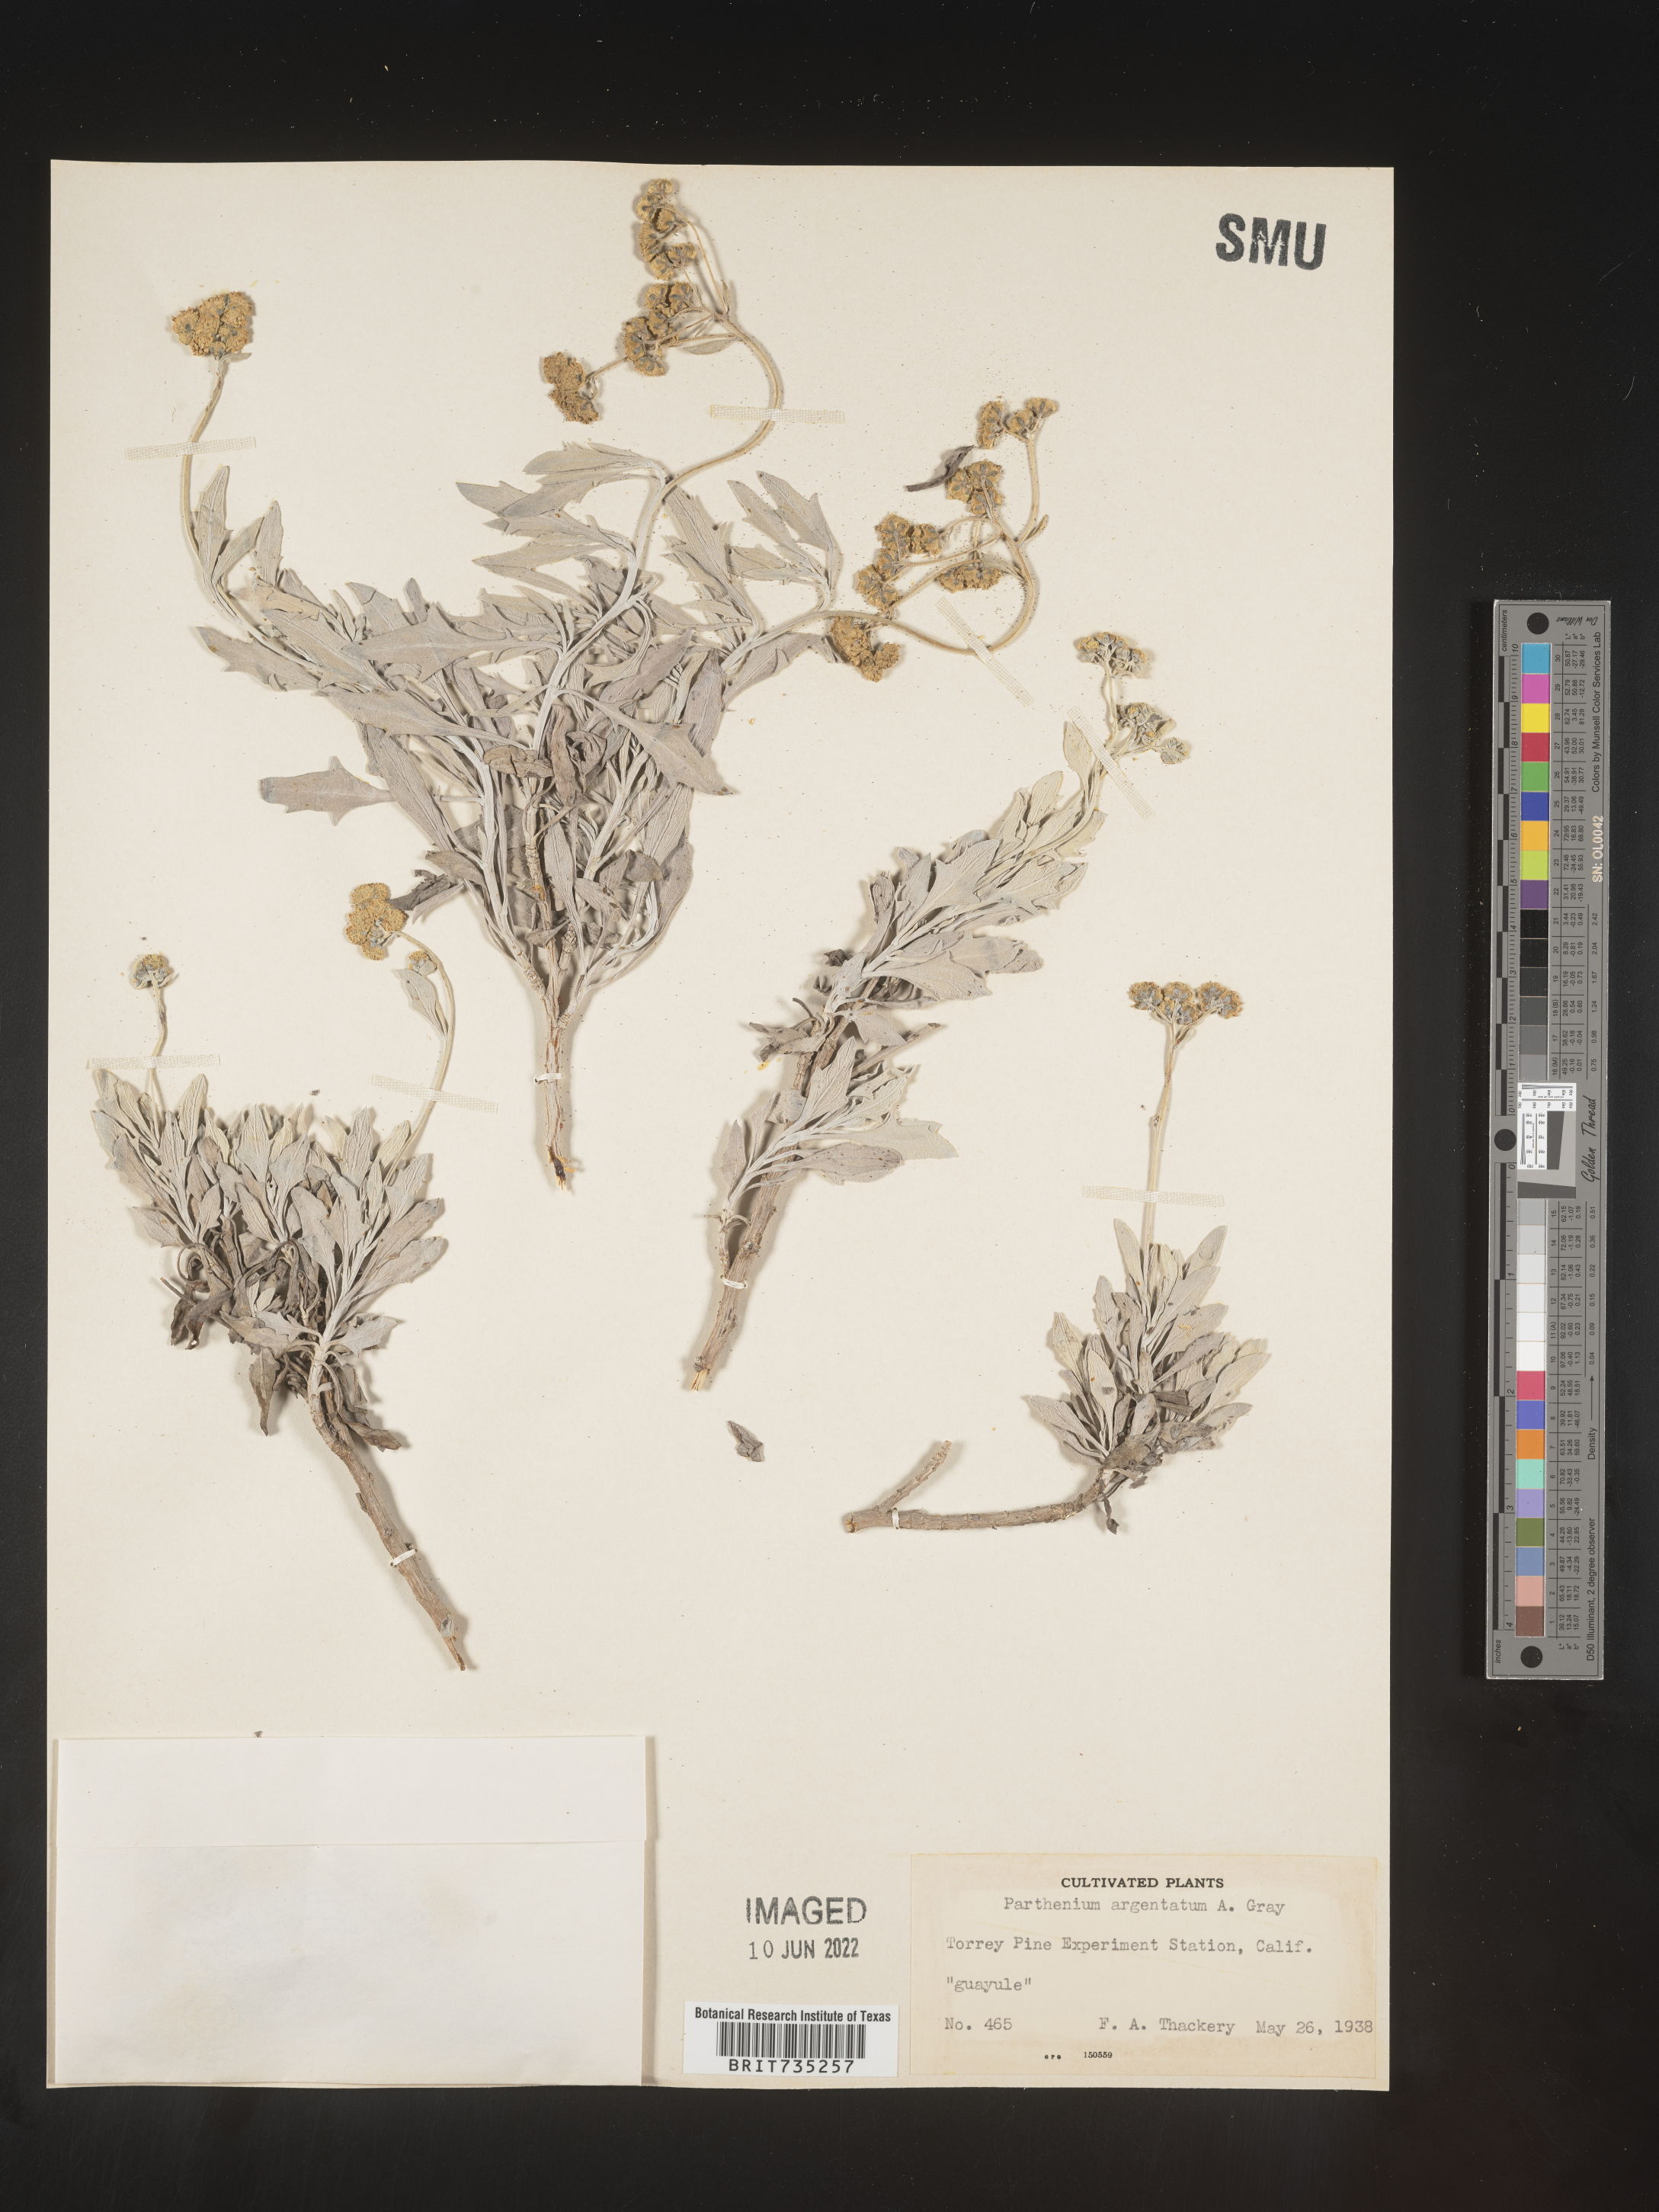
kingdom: Plantae
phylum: Tracheophyta
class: Magnoliopsida
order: Asterales
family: Asteraceae
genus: Parthenium
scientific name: Parthenium
